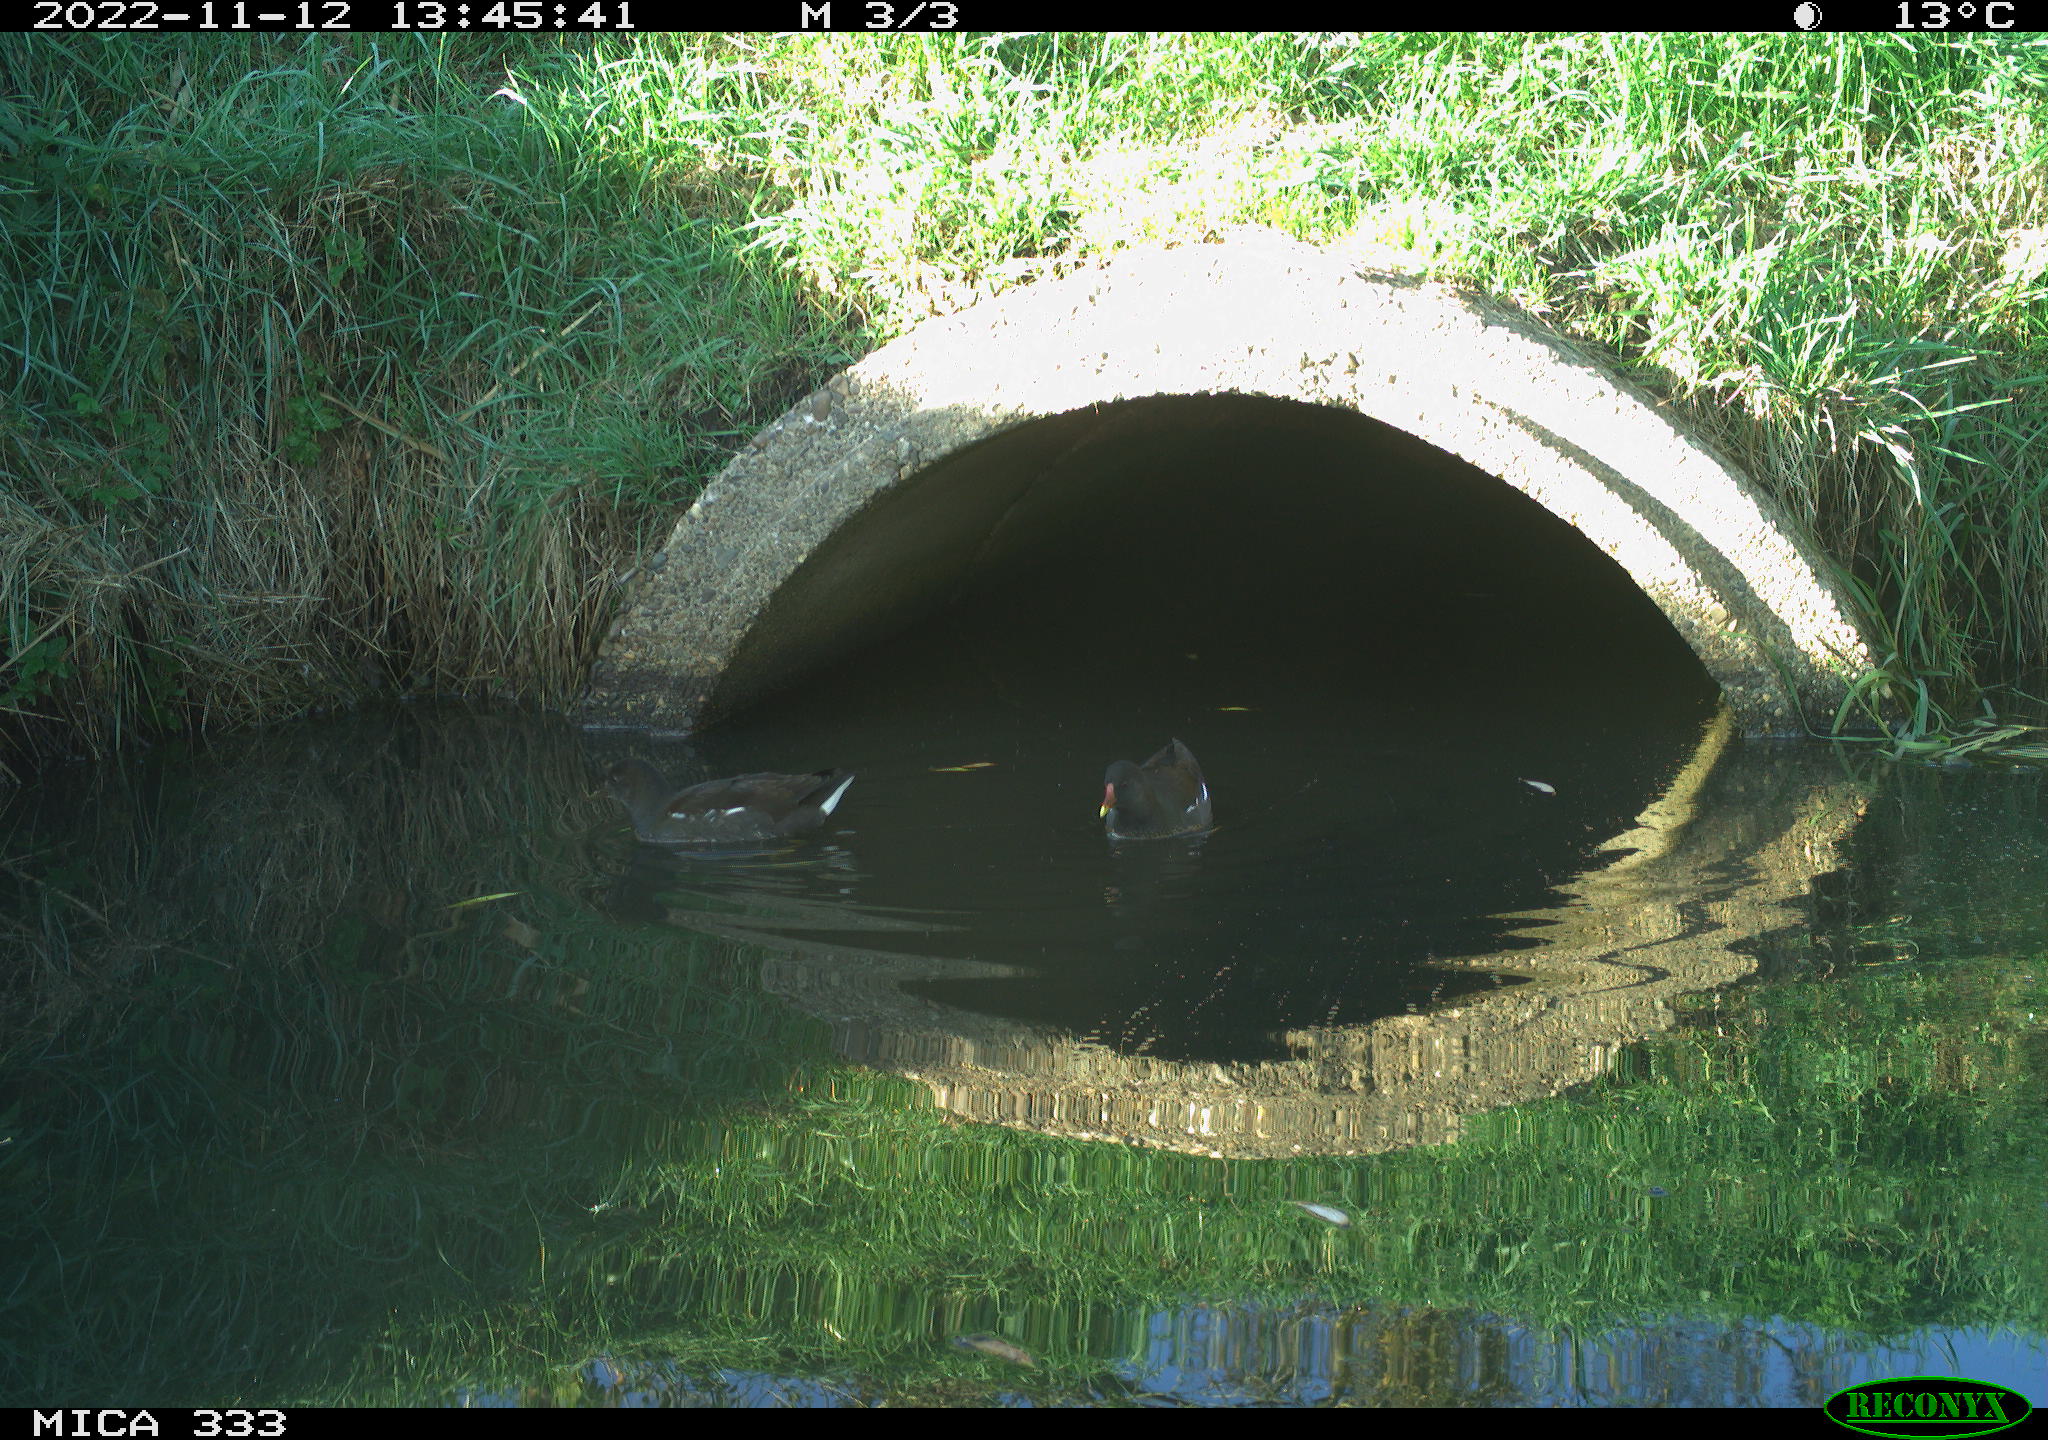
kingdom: Animalia
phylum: Chordata
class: Aves
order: Gruiformes
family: Rallidae
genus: Gallinula
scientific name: Gallinula chloropus
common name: Common moorhen
